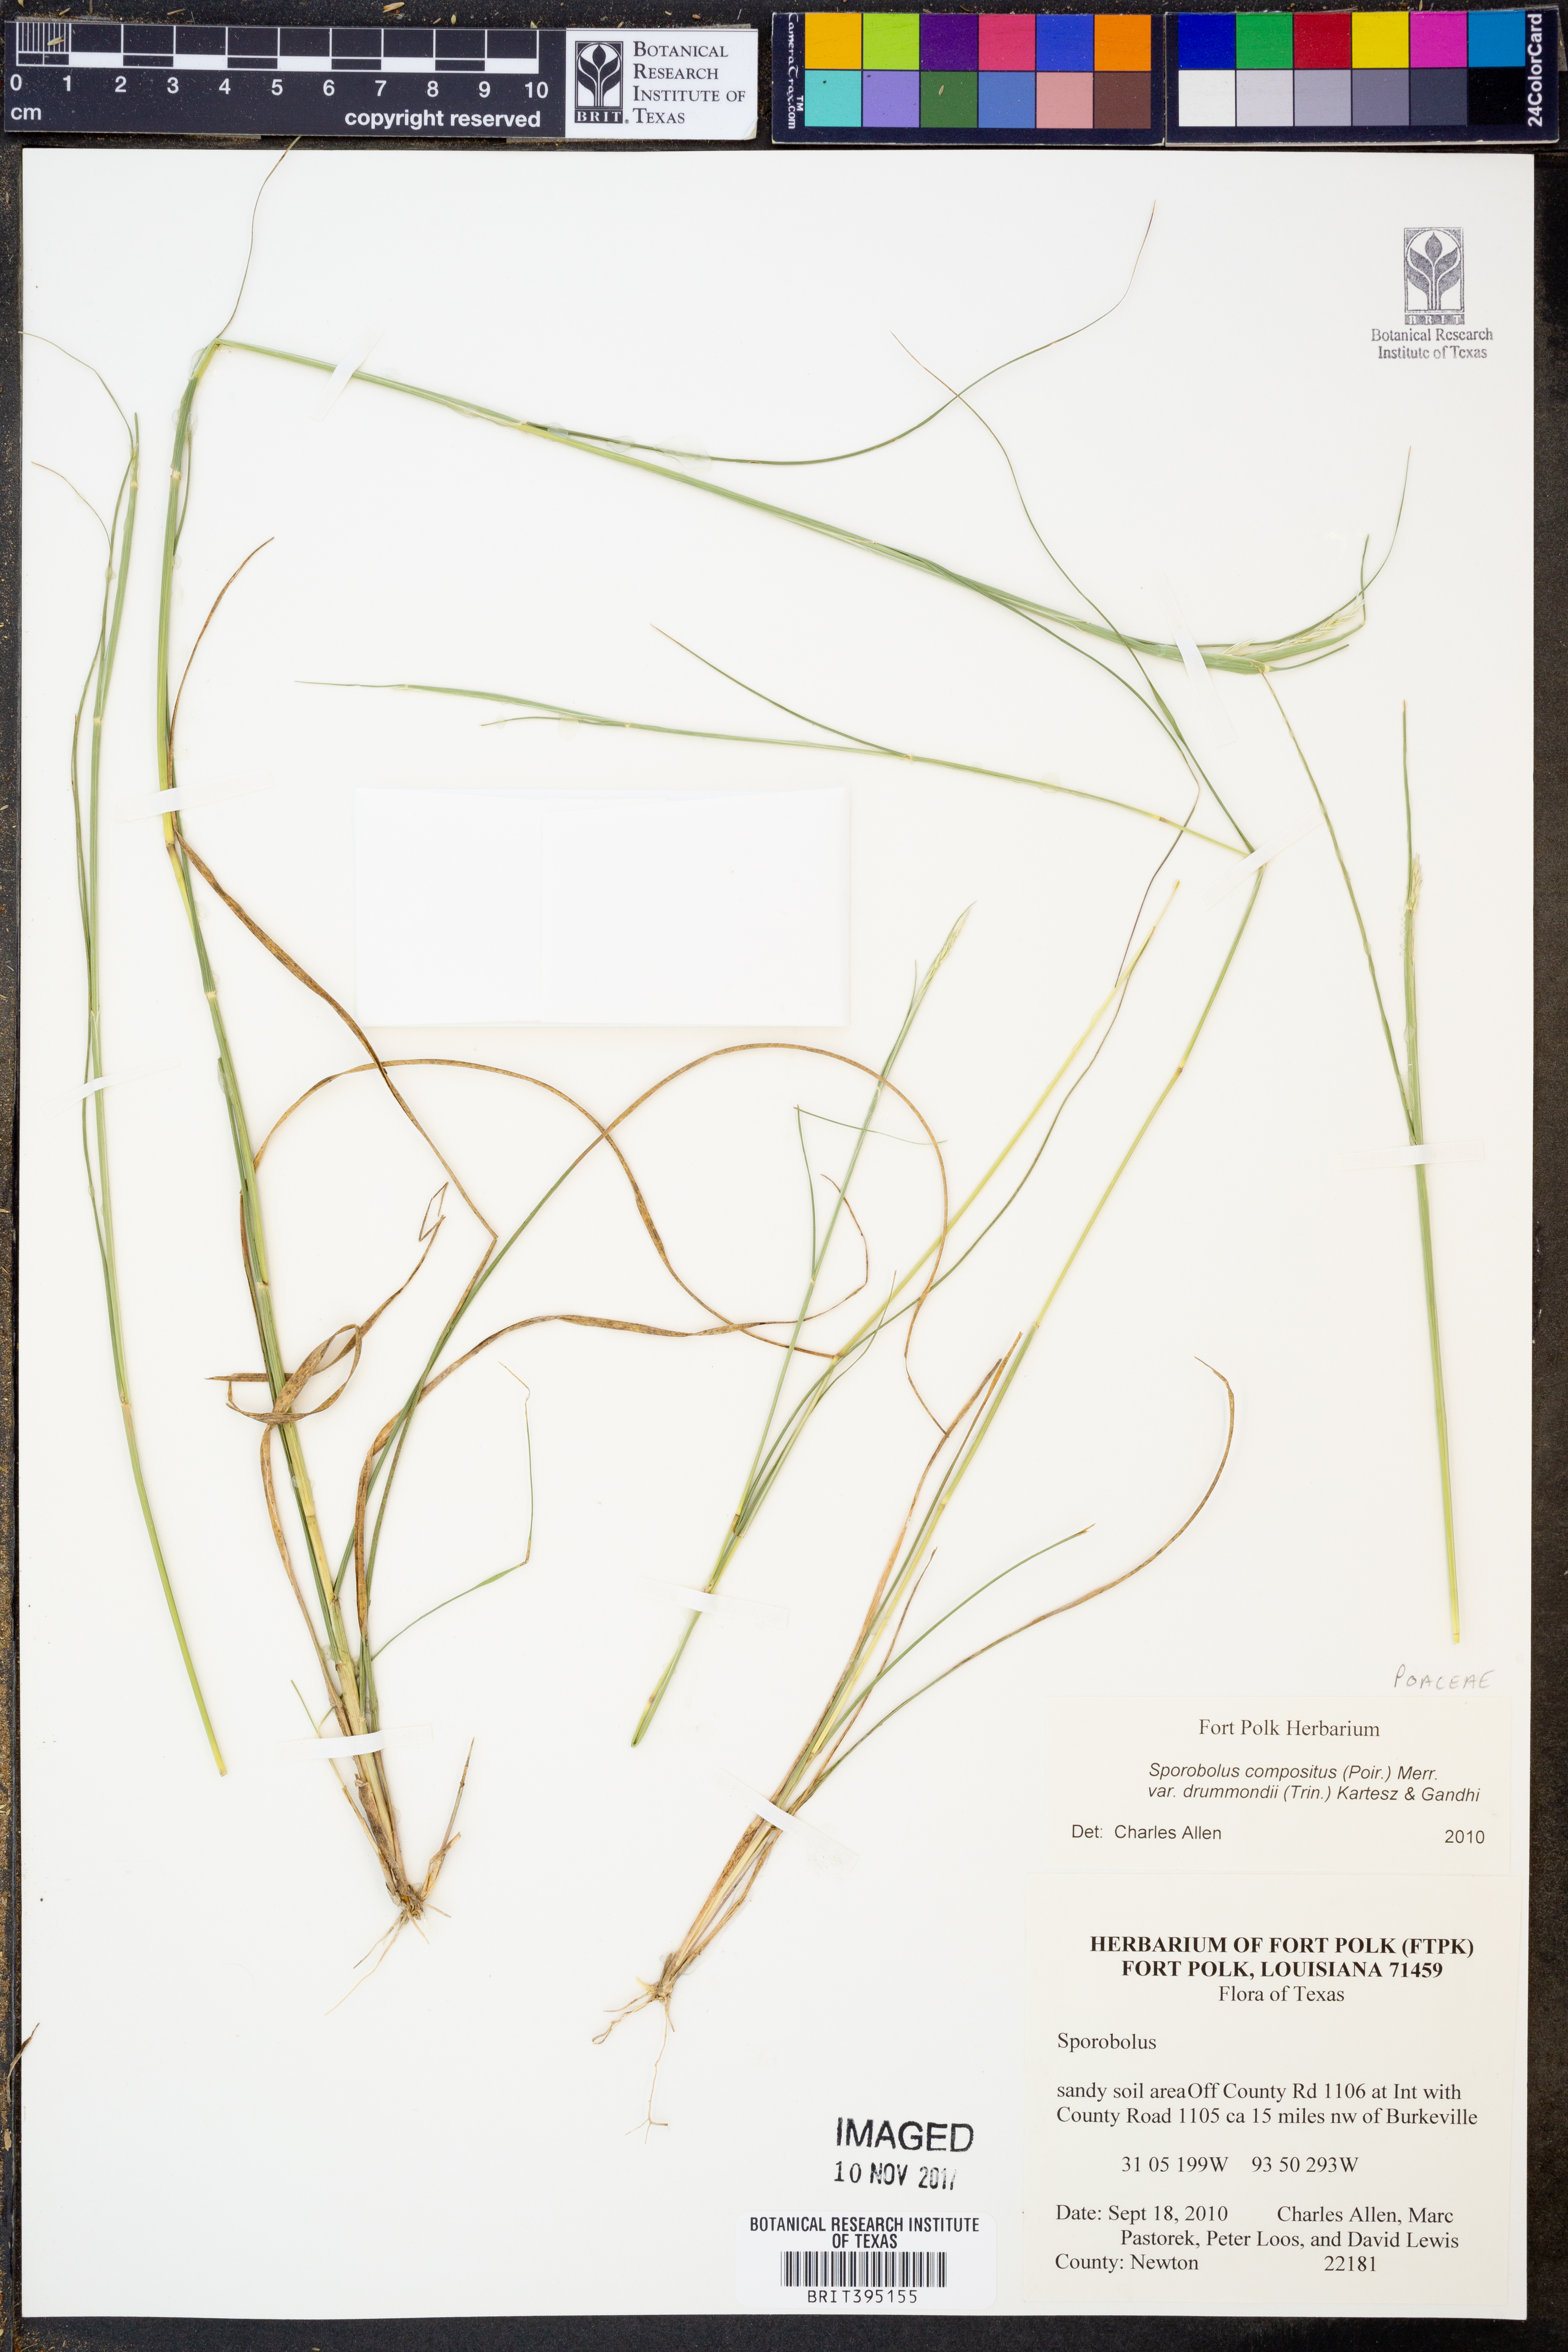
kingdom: Plantae
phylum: Tracheophyta
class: Liliopsida
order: Poales
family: Poaceae
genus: Sporobolus
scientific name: Sporobolus compositus
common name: Rough dropseed
